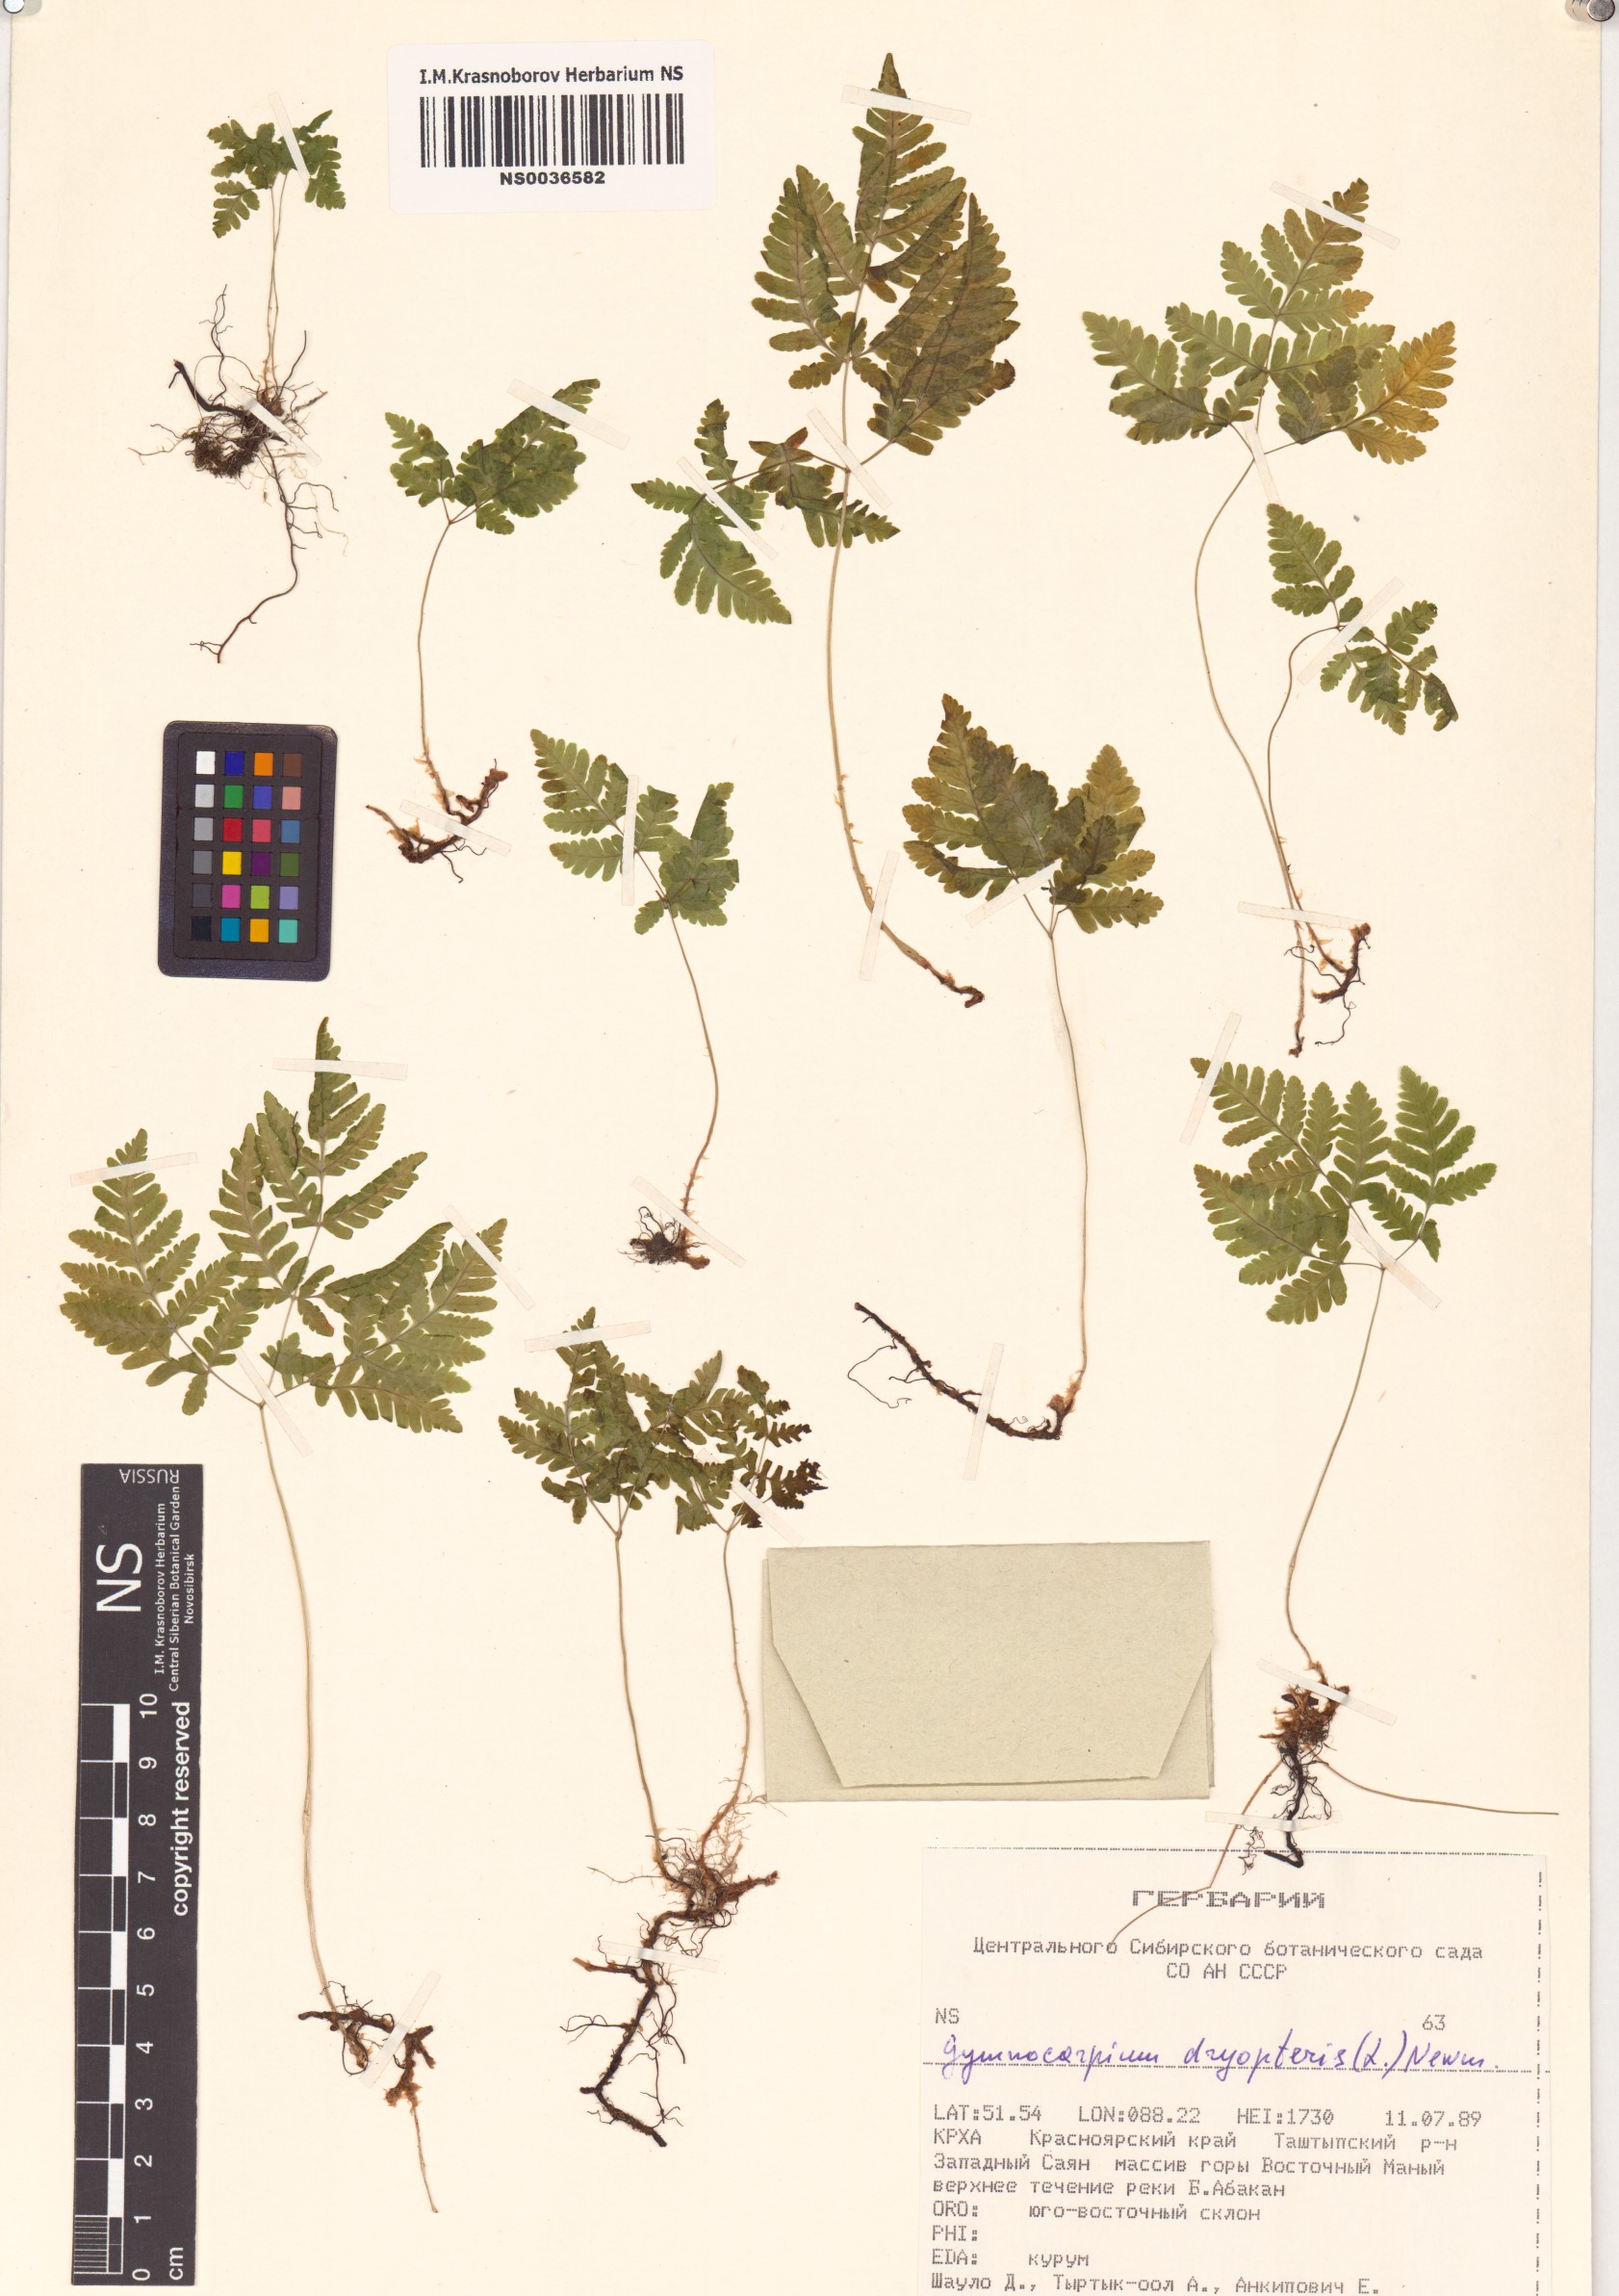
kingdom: Plantae
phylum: Tracheophyta
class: Polypodiopsida
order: Polypodiales
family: Cystopteridaceae
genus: Gymnocarpium
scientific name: Gymnocarpium dryopteris
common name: Oak fern
